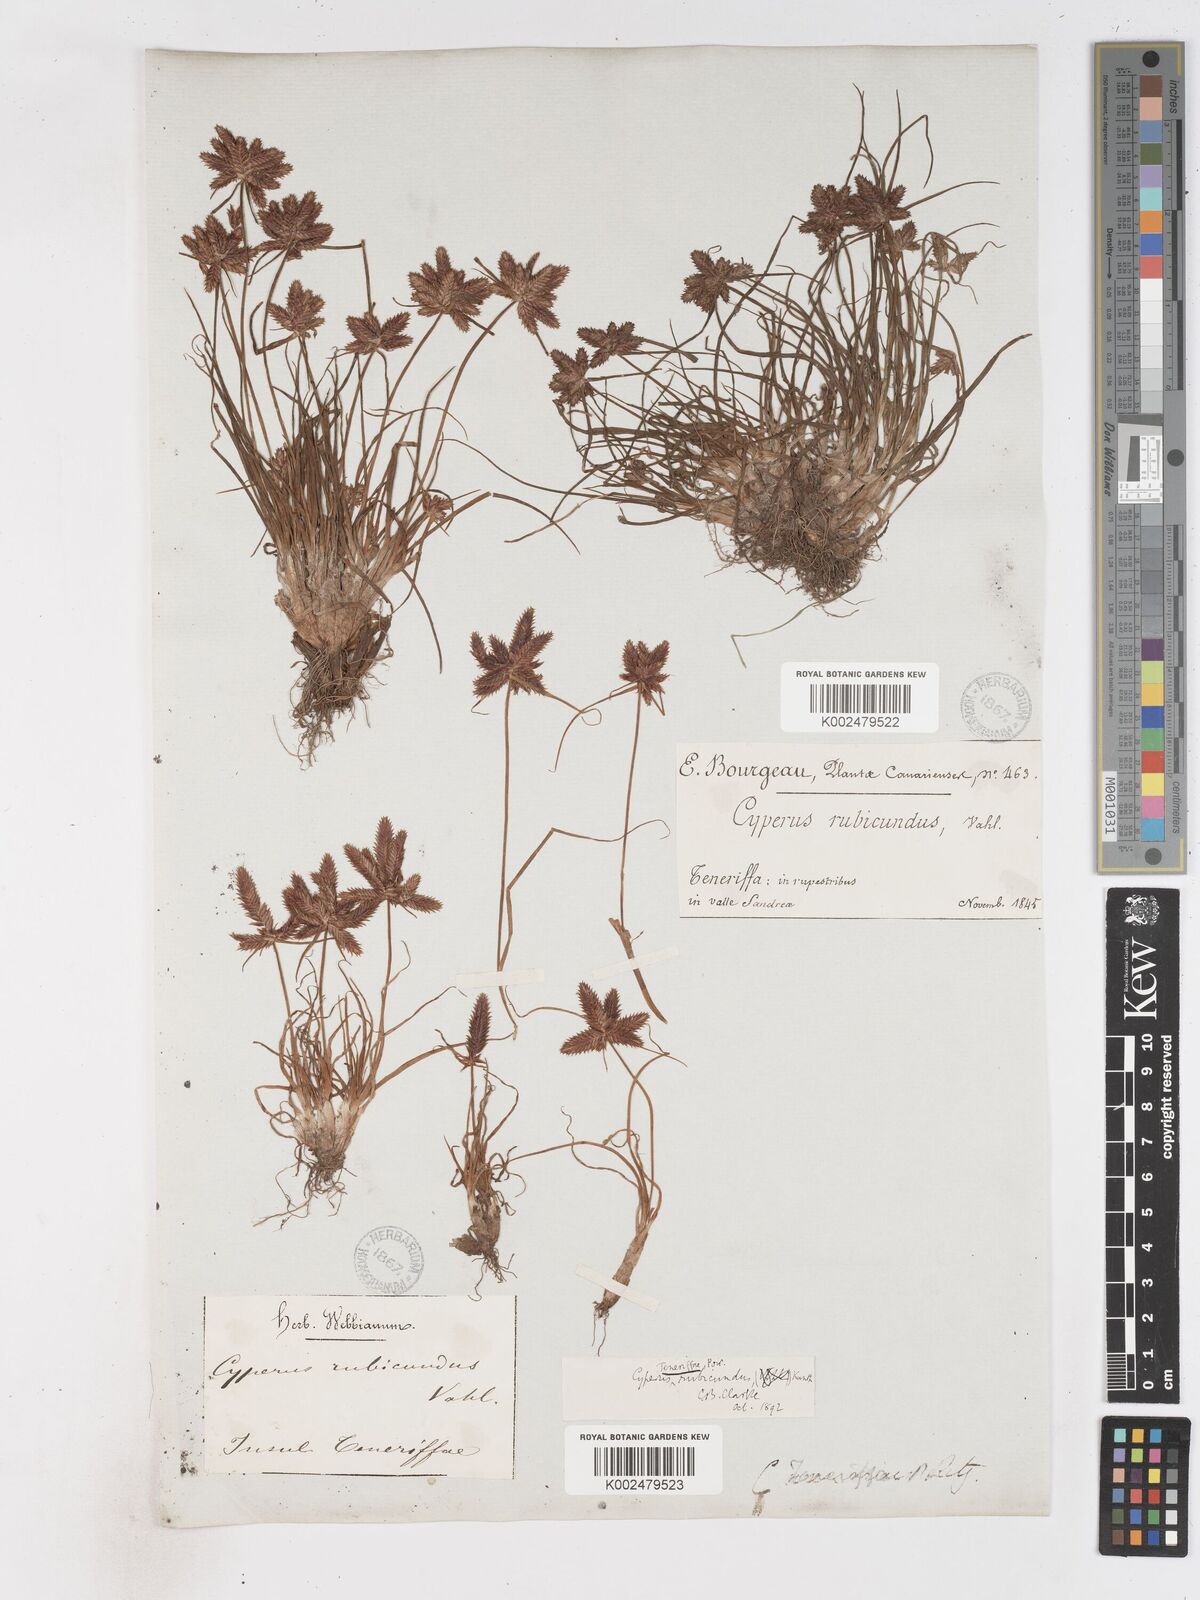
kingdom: Plantae
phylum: Tracheophyta
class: Liliopsida
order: Poales
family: Cyperaceae
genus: Cyperus
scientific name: Cyperus rubicundus
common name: Coco-grass
